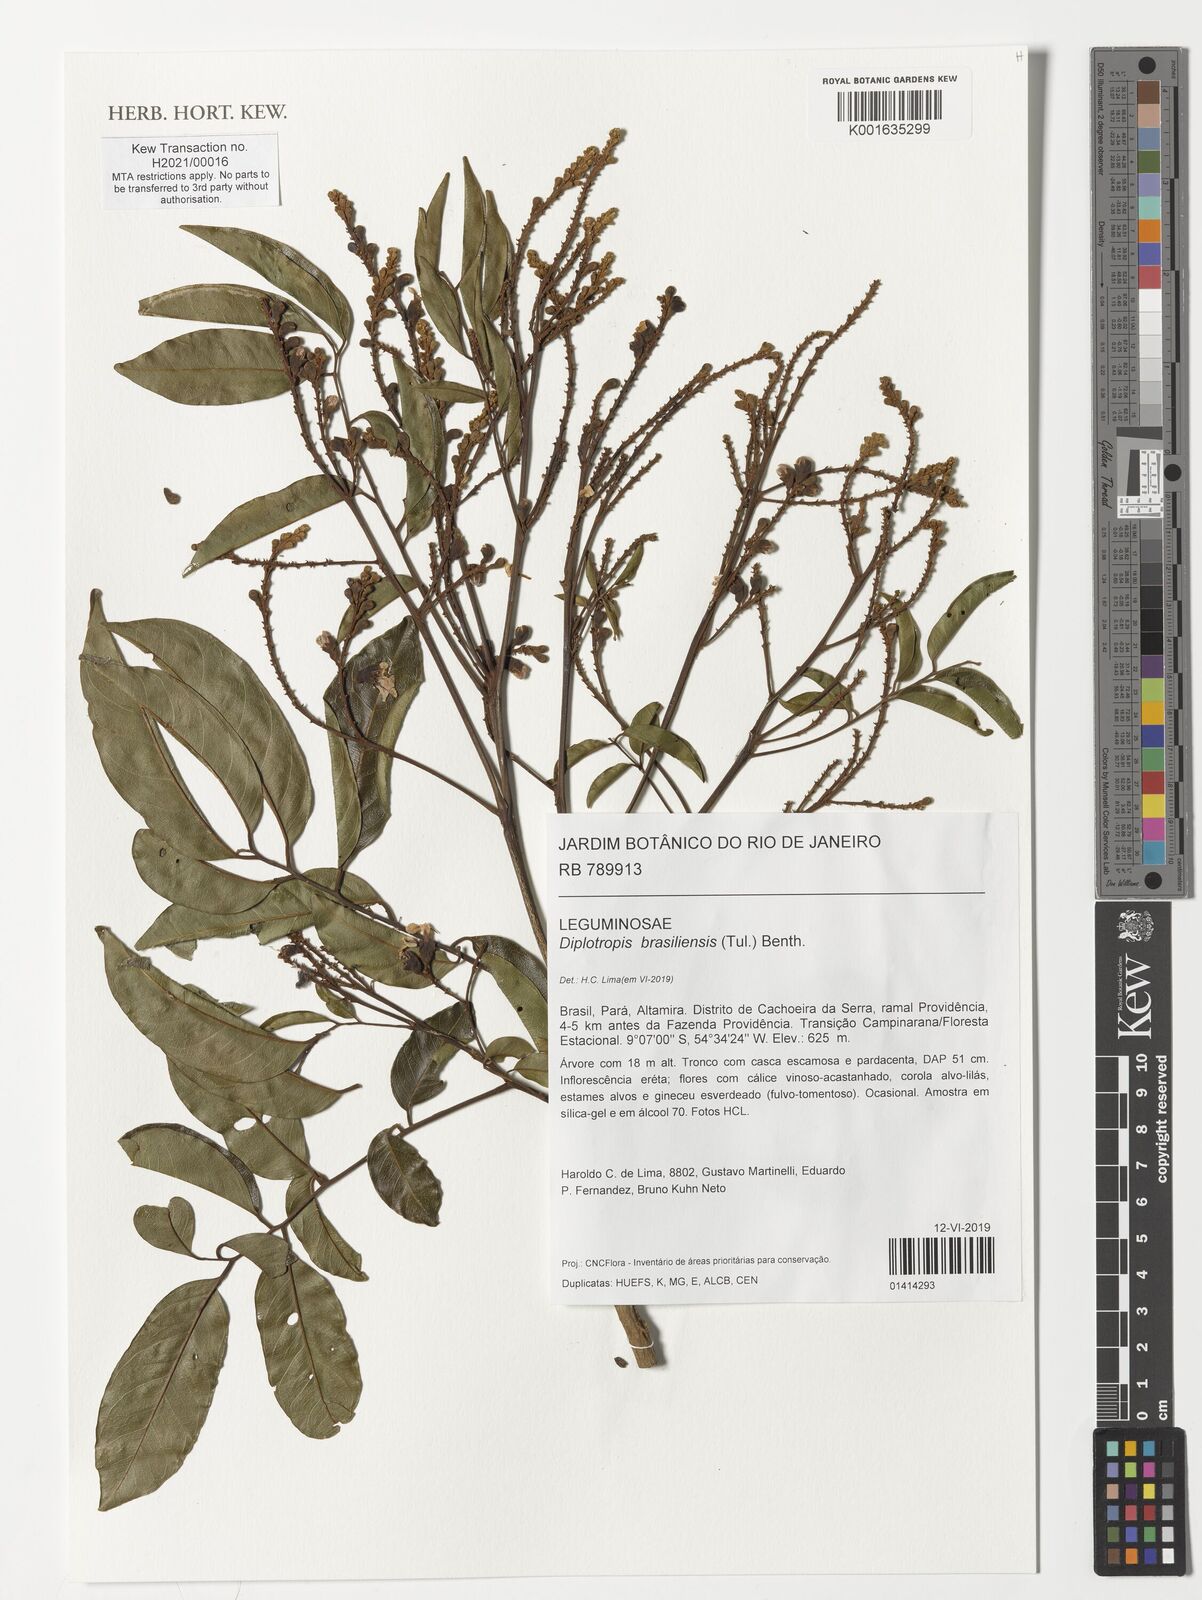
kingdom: Plantae
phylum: Tracheophyta
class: Magnoliopsida
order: Fabales
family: Fabaceae
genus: Diplotropis
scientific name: Diplotropis brasiliensis
